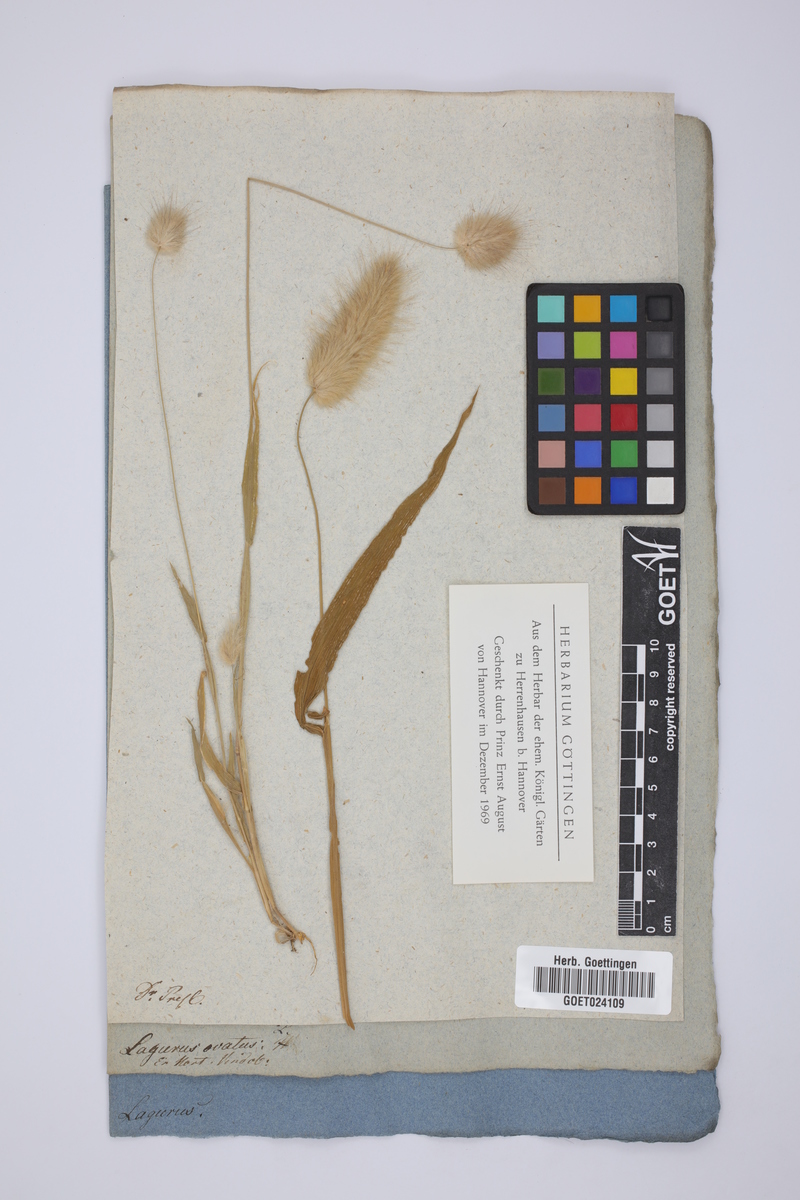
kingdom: Plantae
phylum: Tracheophyta
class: Liliopsida
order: Poales
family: Poaceae
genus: Lagurus
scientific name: Lagurus ovatus
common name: Hare's-tail
